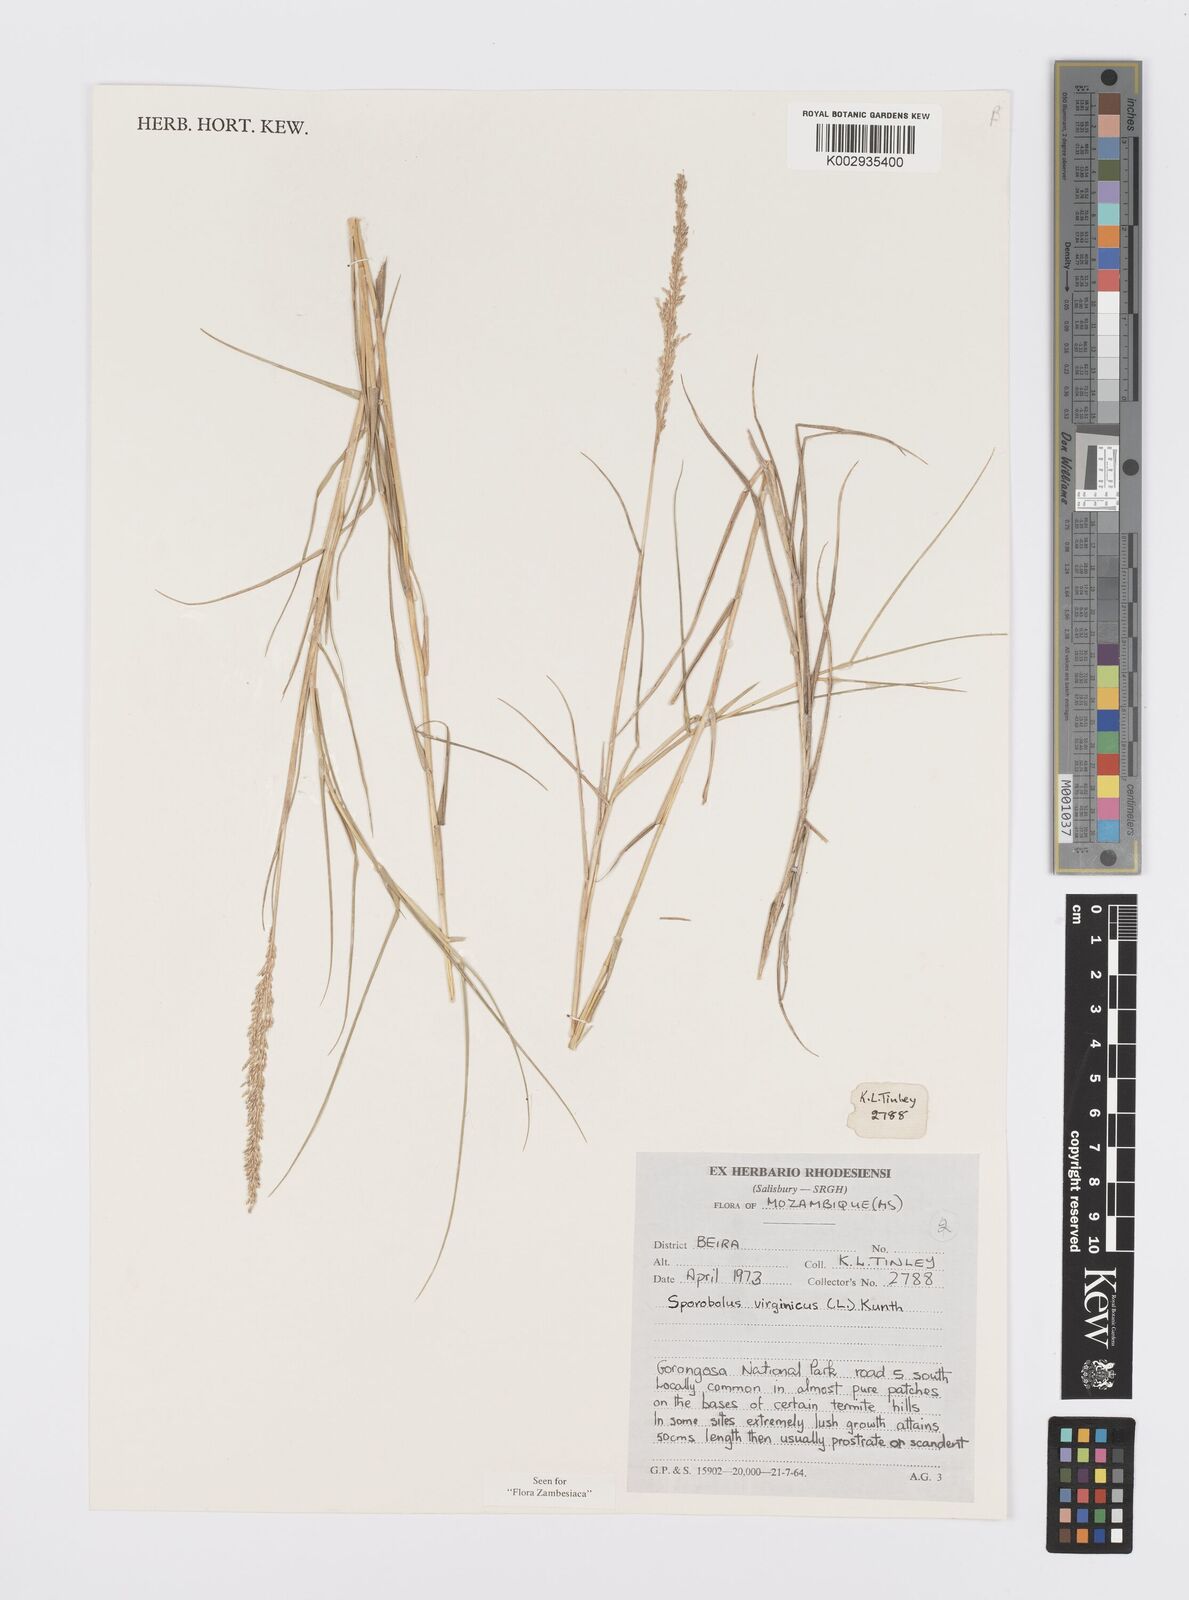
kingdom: Plantae
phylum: Tracheophyta
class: Liliopsida
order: Poales
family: Poaceae
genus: Sporobolus
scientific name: Sporobolus virginicus
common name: Beach dropseed
